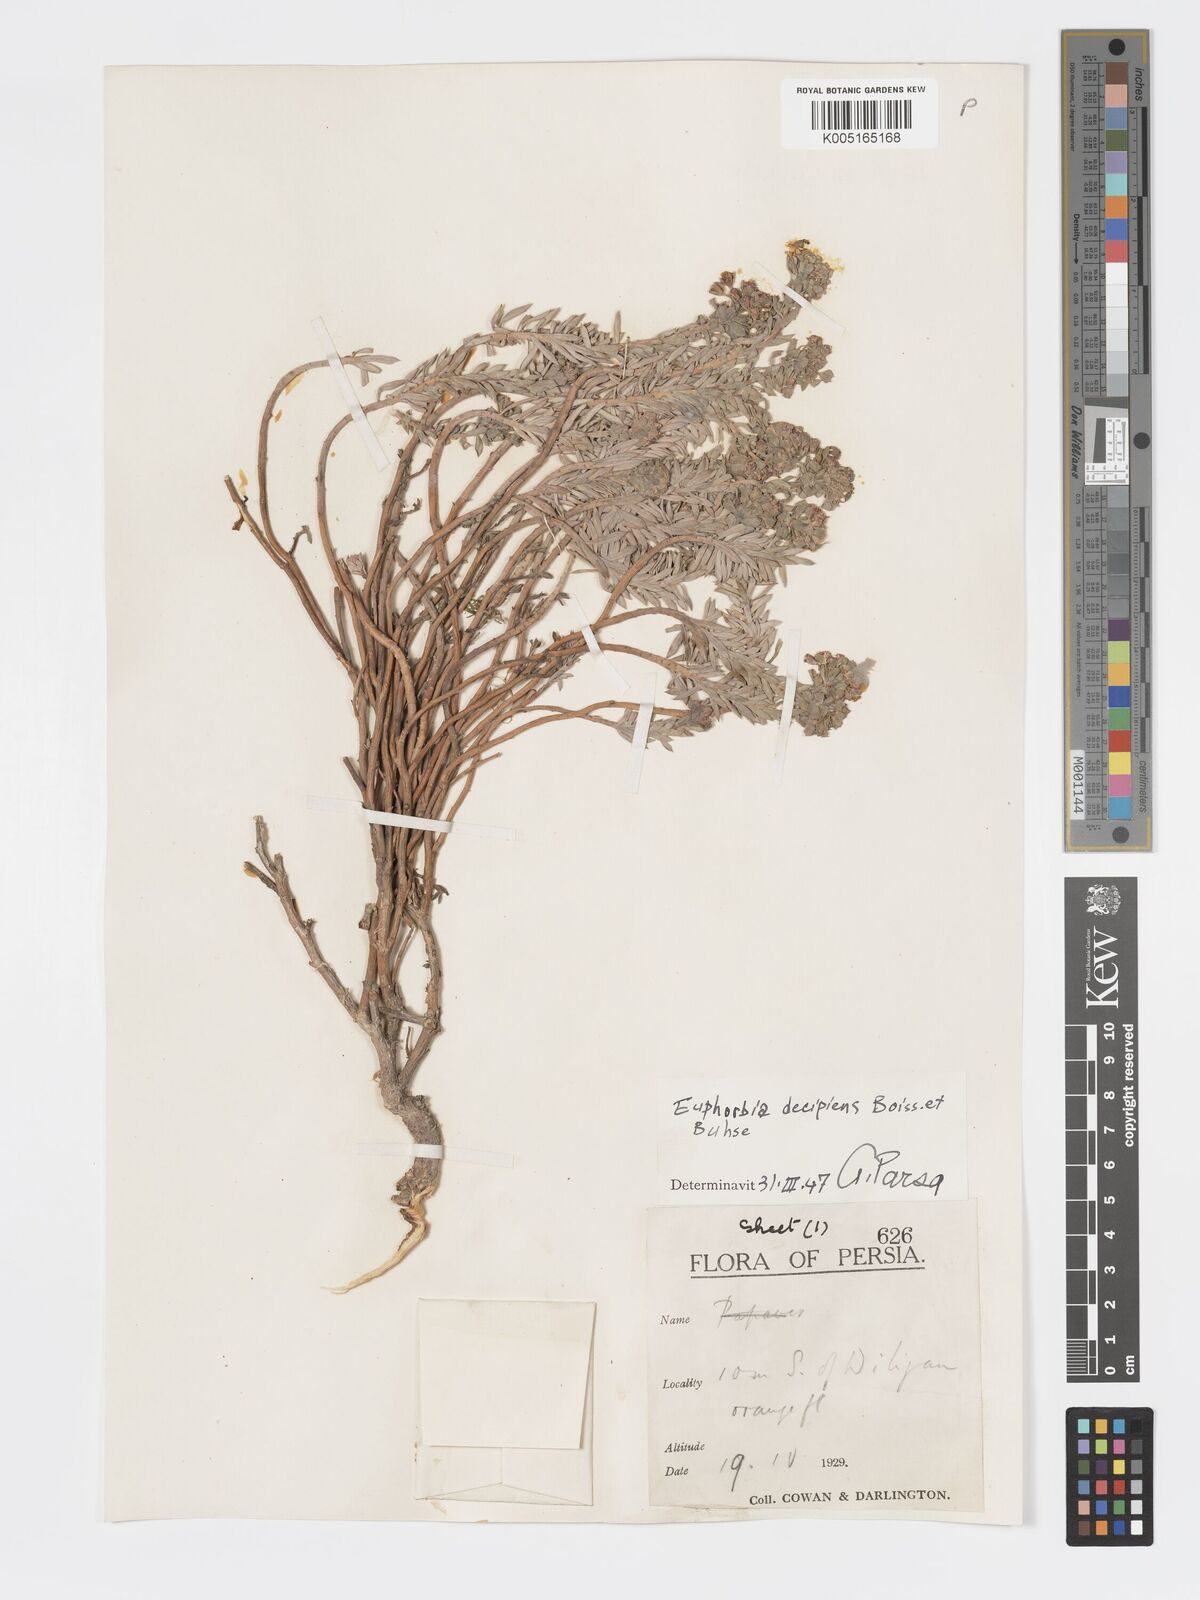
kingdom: Plantae
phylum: Tracheophyta
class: Magnoliopsida
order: Malpighiales
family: Euphorbiaceae
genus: Euphorbia
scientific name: Euphorbia polycaulis
